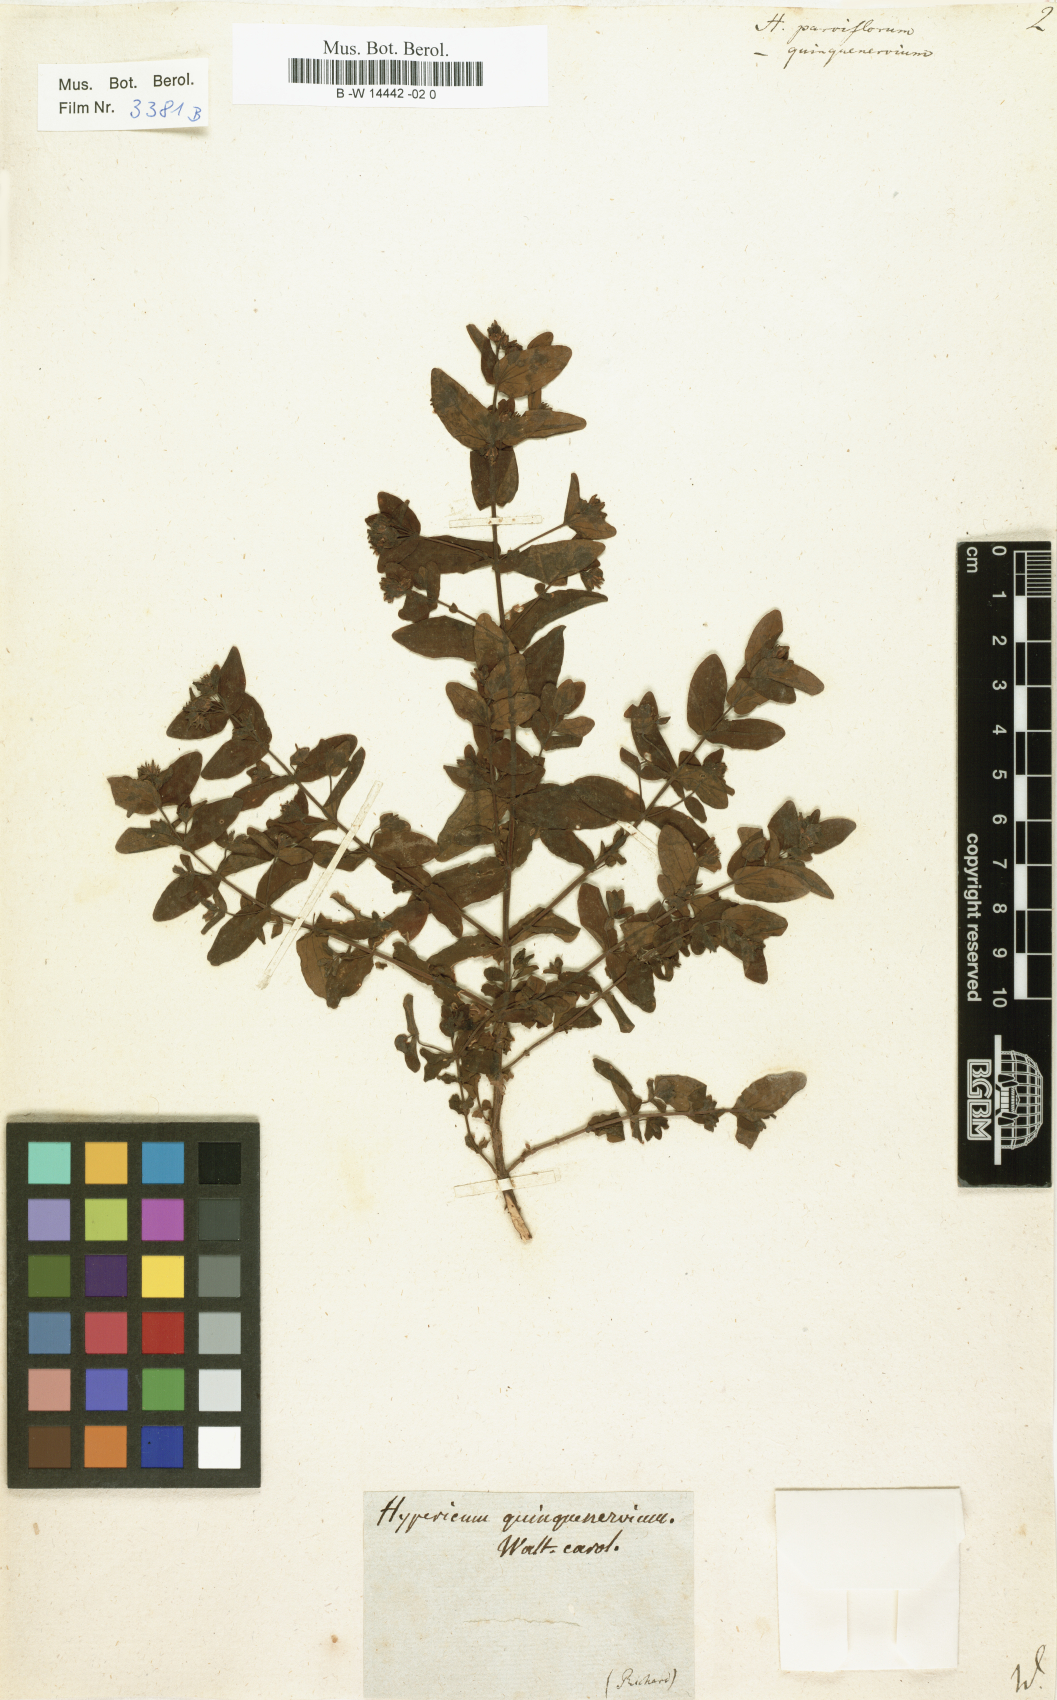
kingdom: Plantae
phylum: Tracheophyta
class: Magnoliopsida
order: Malpighiales
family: Hypericaceae
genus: Hypericum
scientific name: Hypericum
